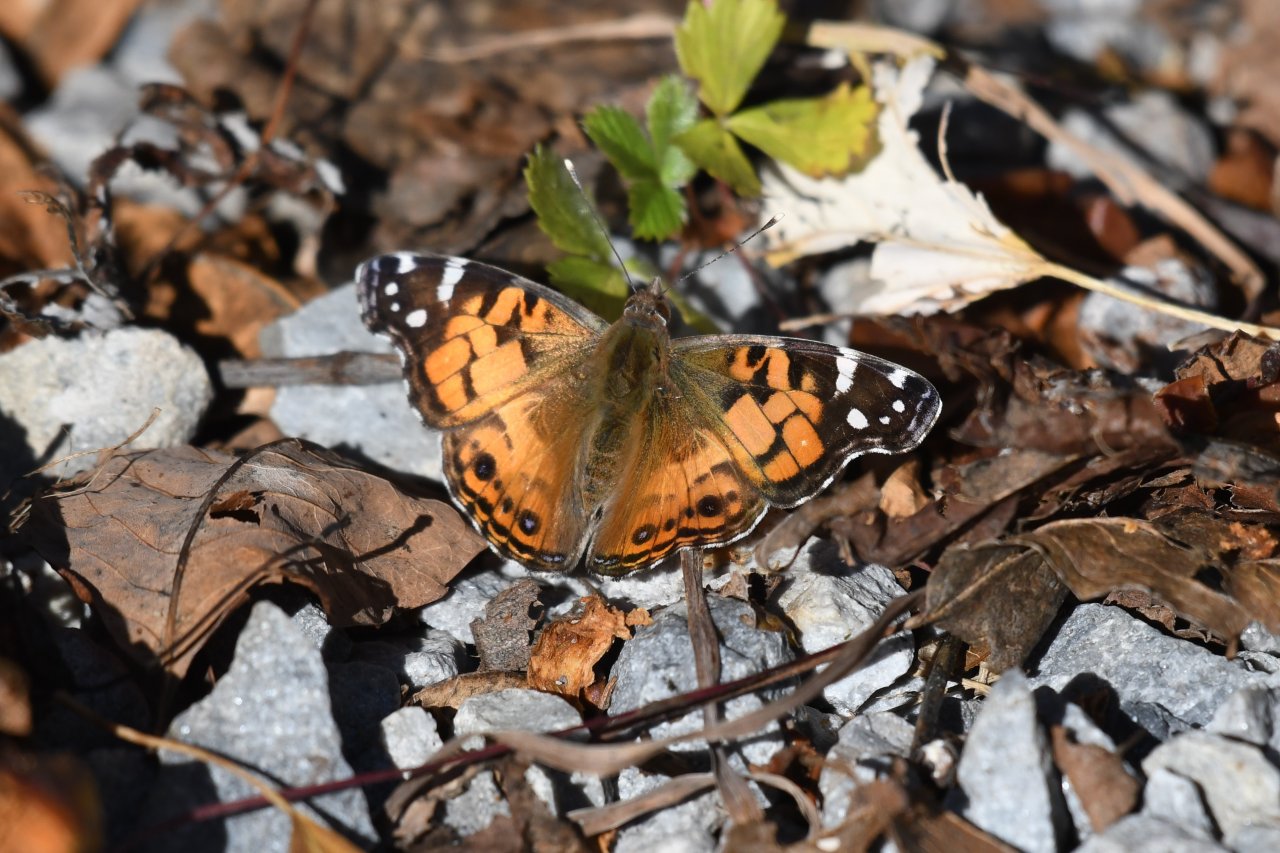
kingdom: Animalia
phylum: Arthropoda
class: Insecta
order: Lepidoptera
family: Nymphalidae
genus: Vanessa
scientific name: Vanessa virginiensis
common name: American Lady
